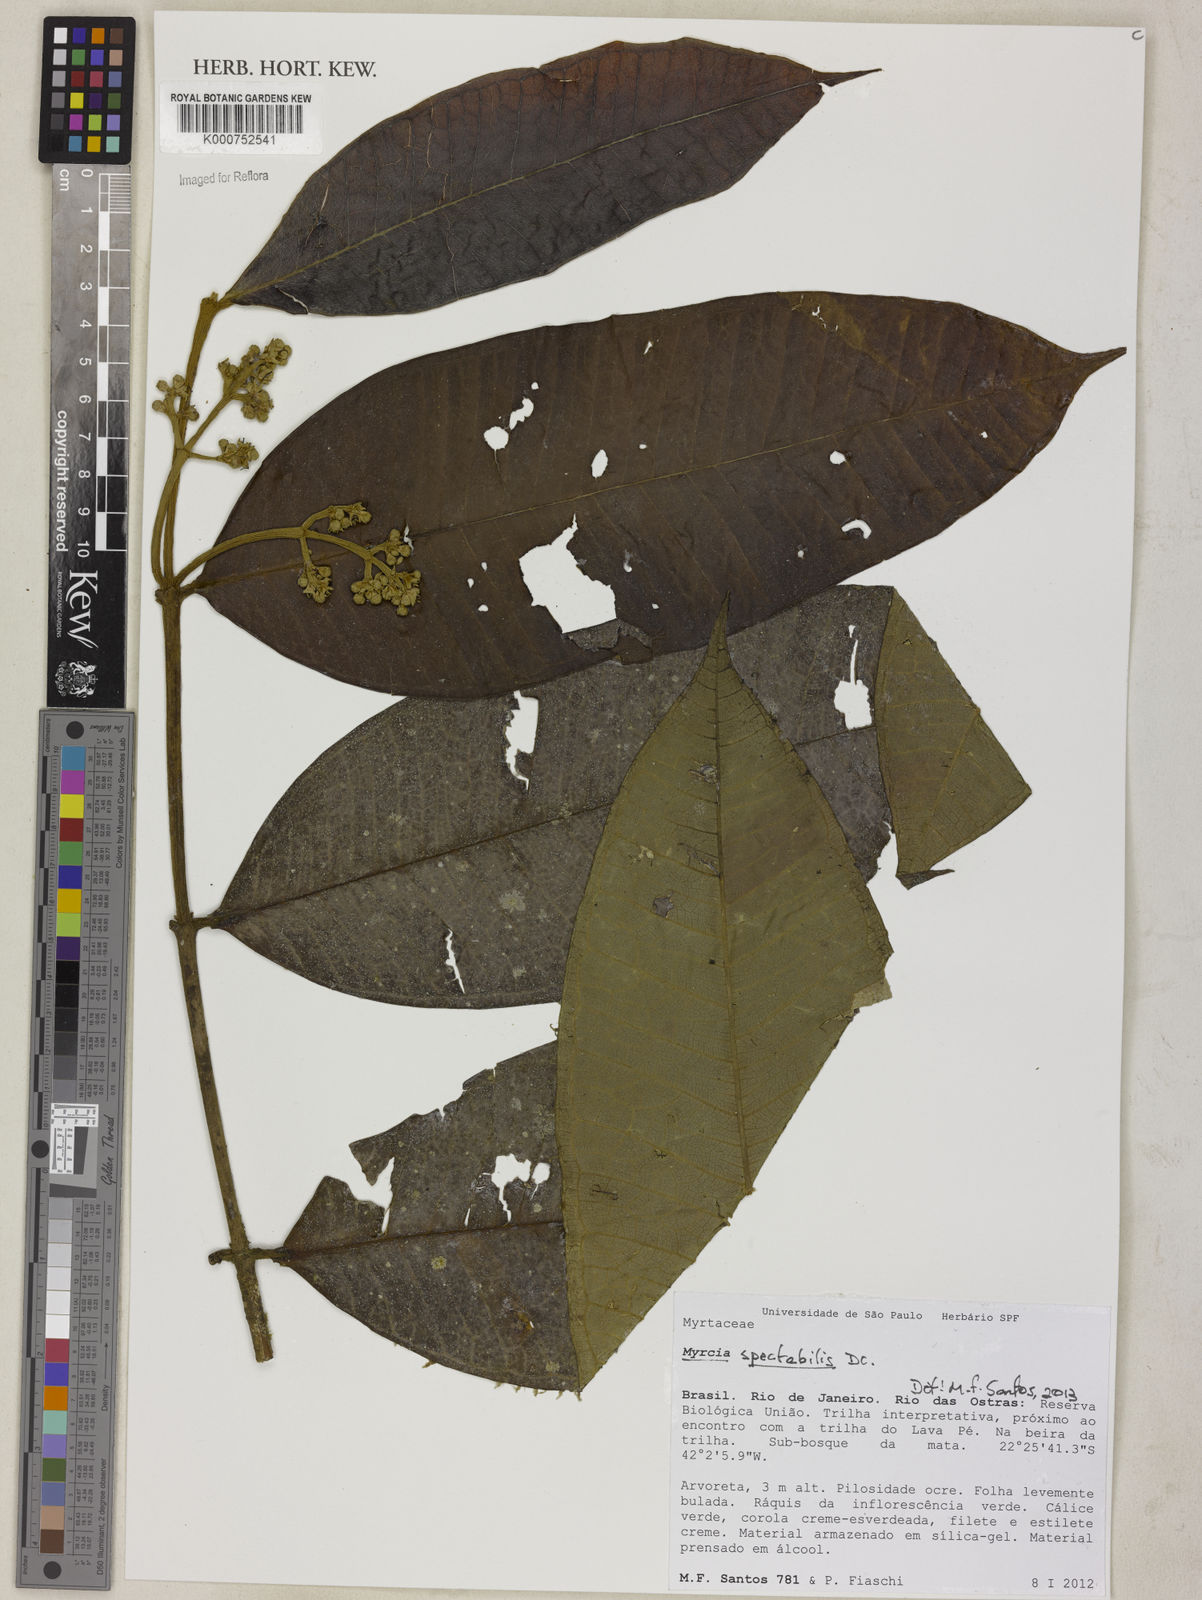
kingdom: Plantae
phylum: Tracheophyta
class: Magnoliopsida
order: Myrtales
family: Myrtaceae
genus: Myrcia
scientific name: Myrcia spectabilis
